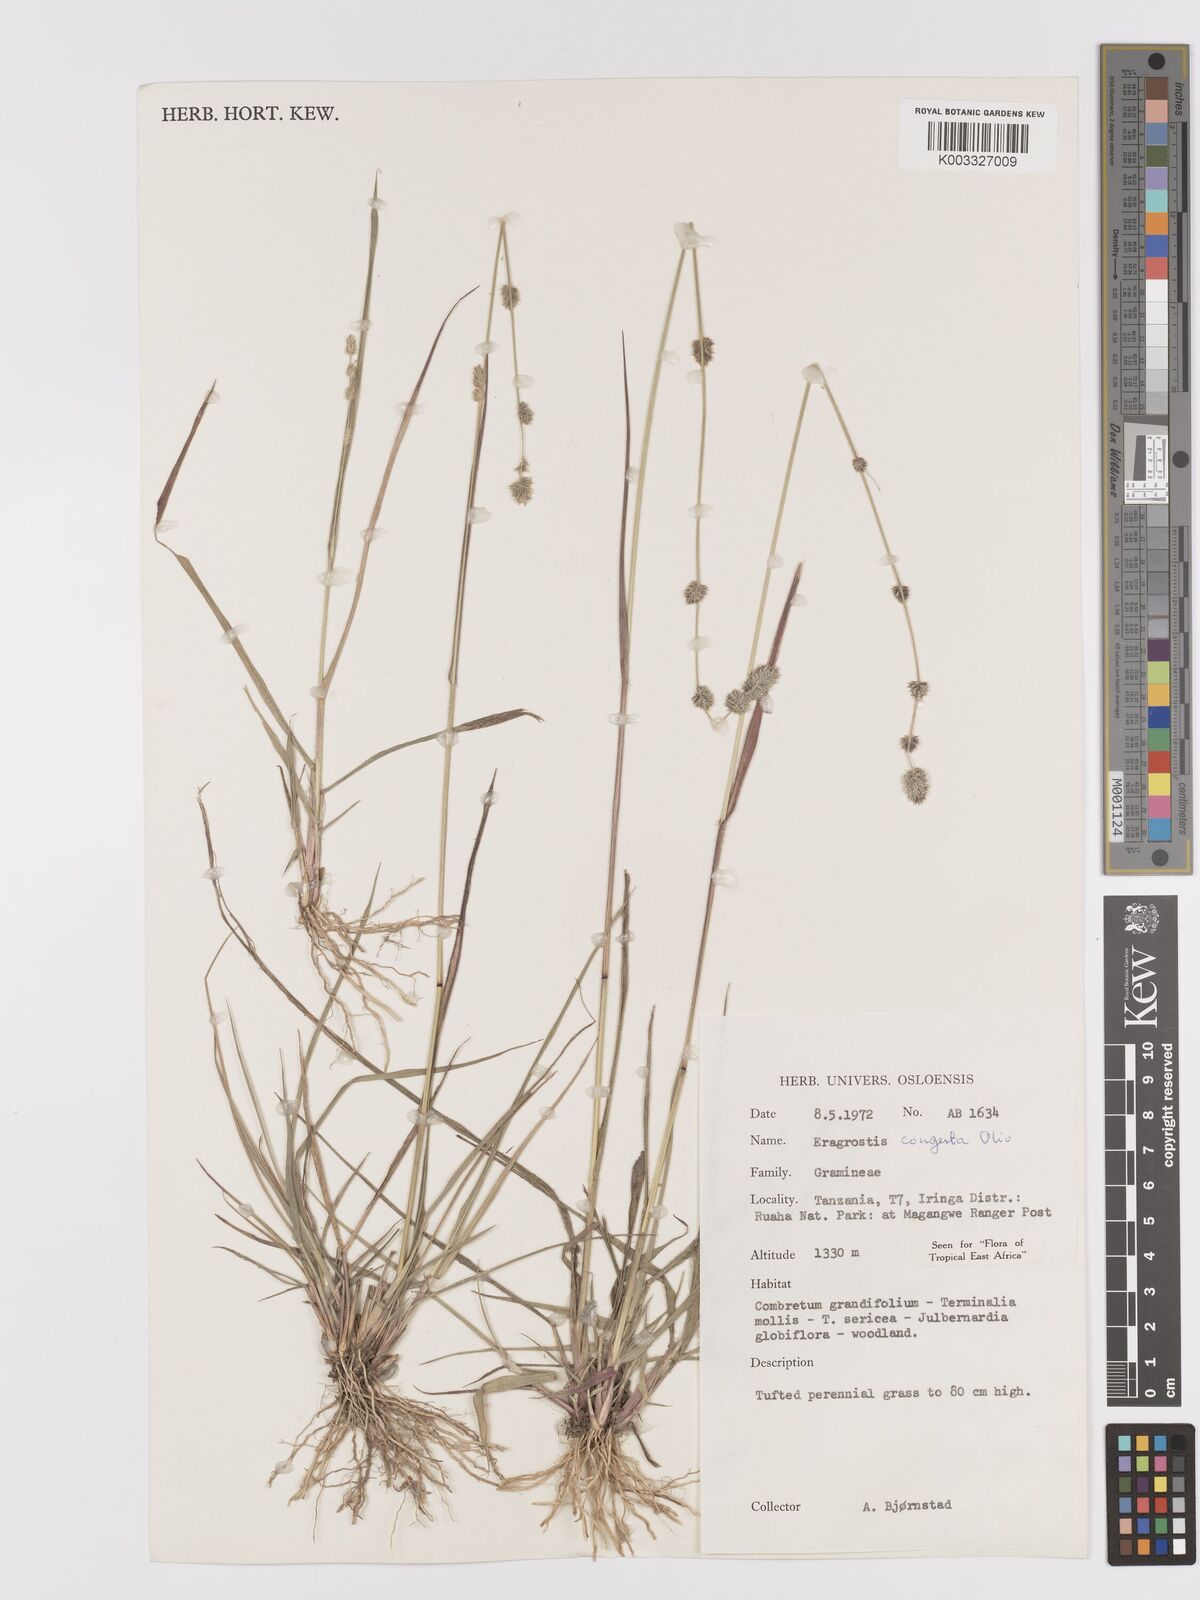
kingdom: Plantae
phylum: Tracheophyta
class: Liliopsida
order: Poales
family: Poaceae
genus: Eragrostis
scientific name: Eragrostis congesta
